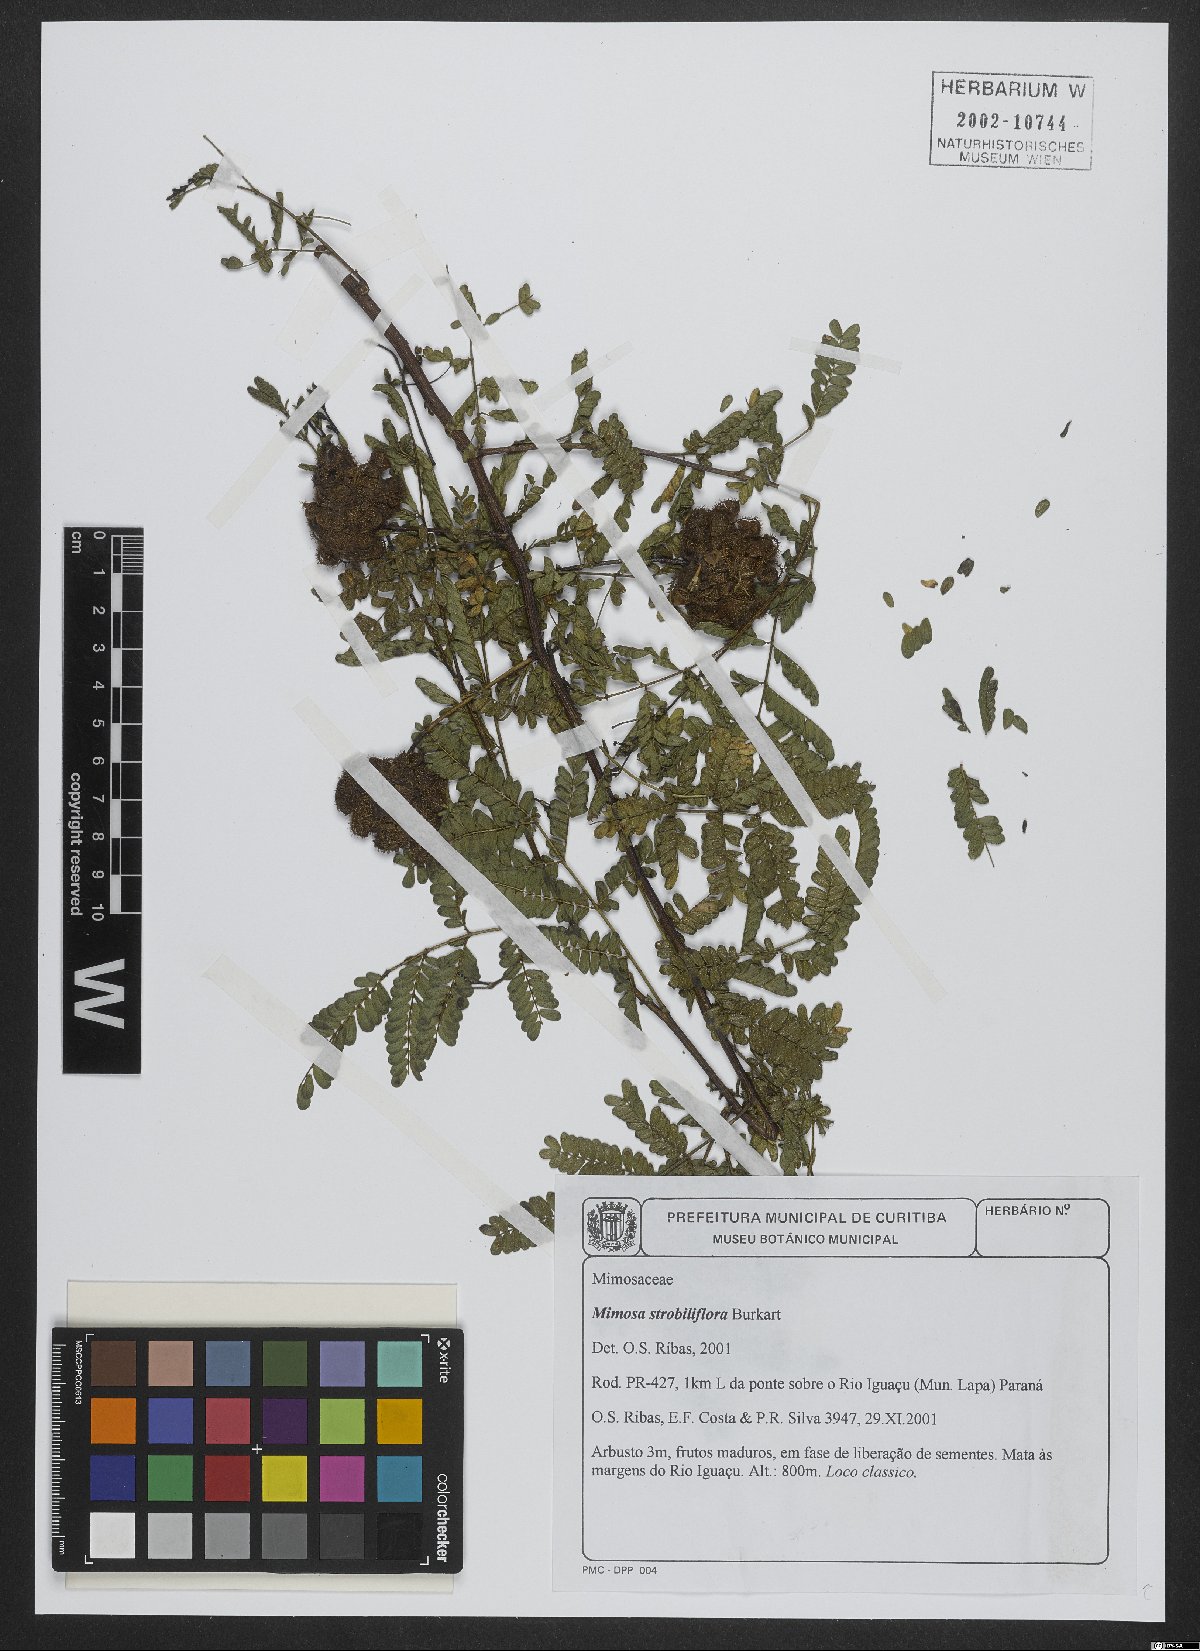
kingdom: Plantae
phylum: Tracheophyta
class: Magnoliopsida
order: Fabales
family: Fabaceae
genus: Mimosa
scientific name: Mimosa strobiliflora
